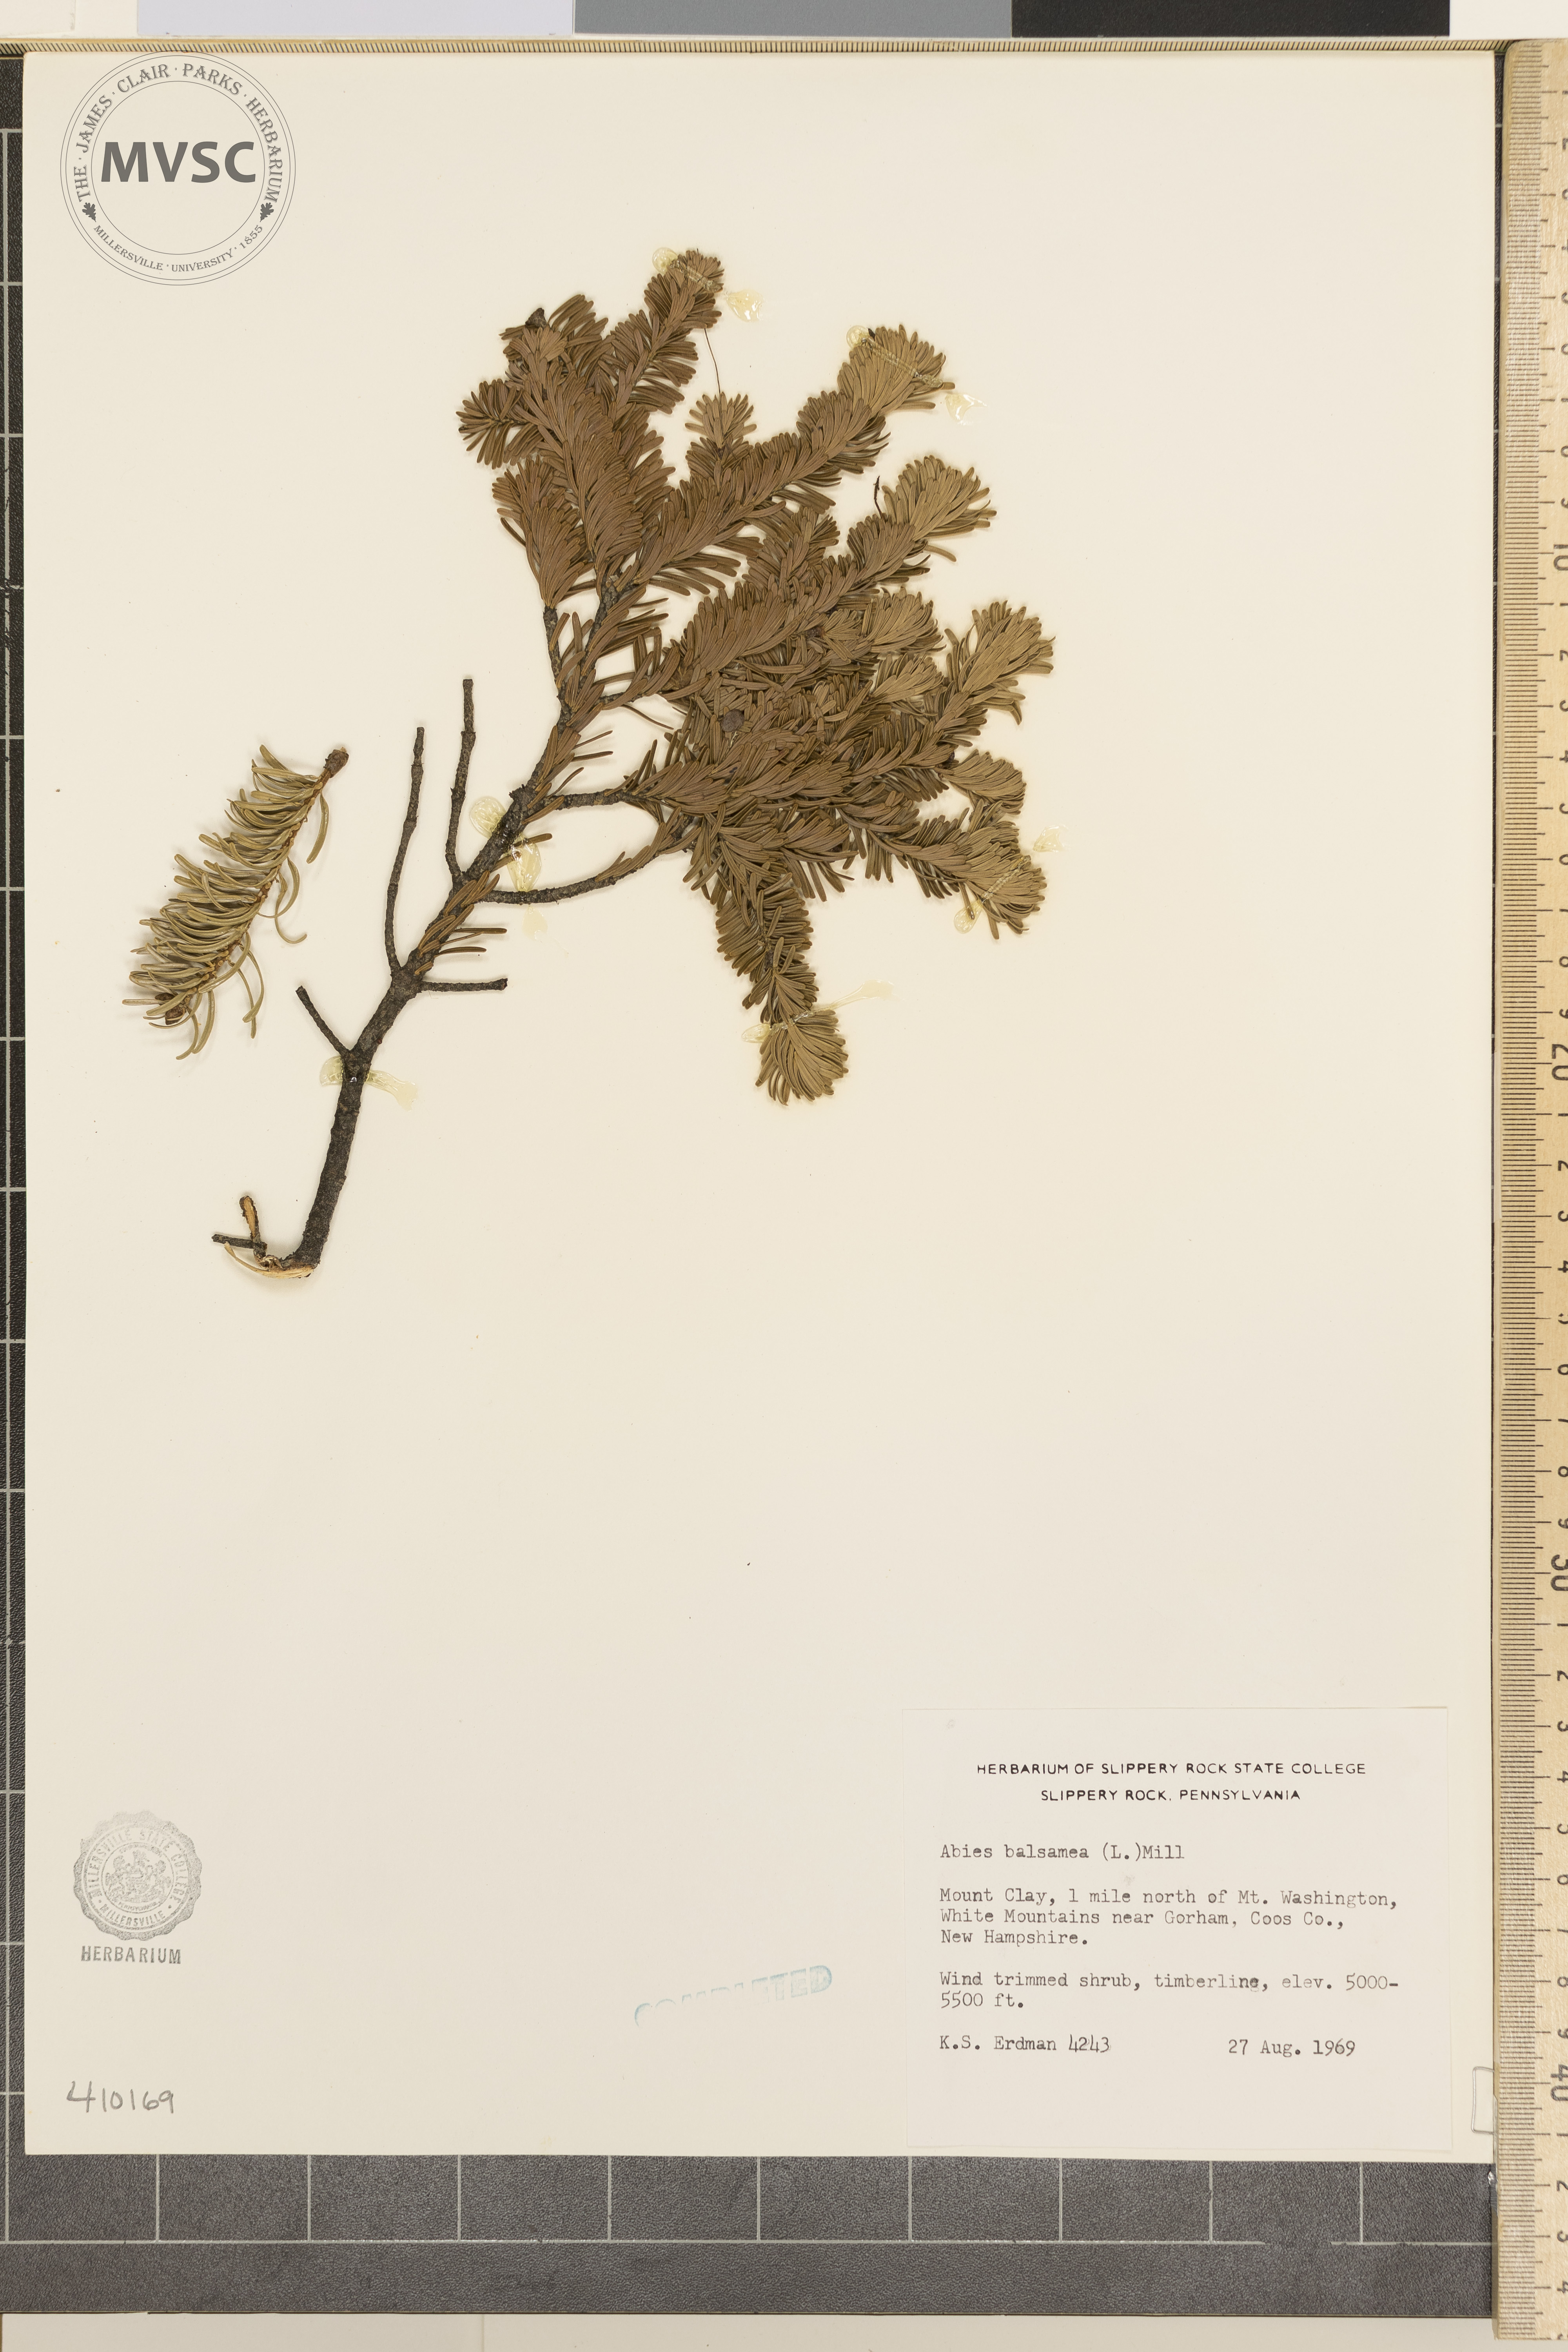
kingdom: Plantae
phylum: Tracheophyta
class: Pinopsida
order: Pinales
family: Pinaceae
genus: Abies
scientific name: Abies balsamea
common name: Balsam fir
